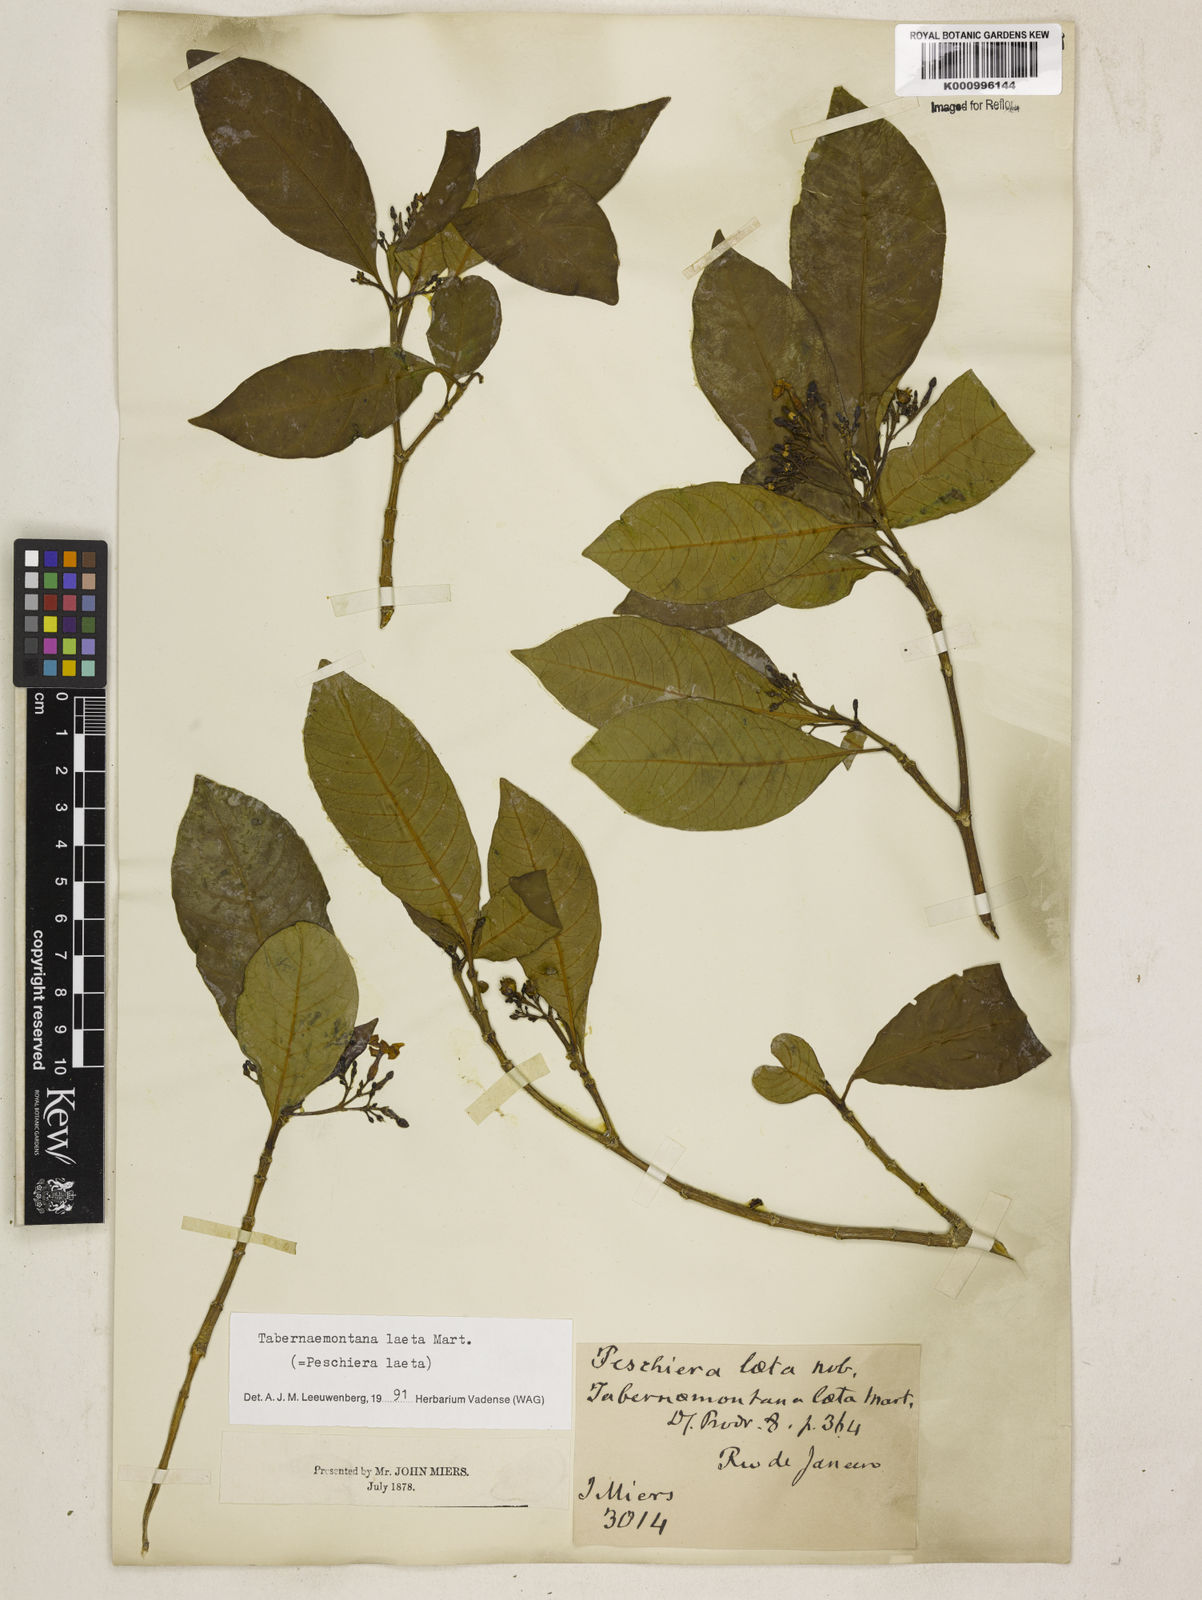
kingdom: Plantae
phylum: Tracheophyta
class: Magnoliopsida
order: Gentianales
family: Apocynaceae
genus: Tabernaemontana
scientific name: Tabernaemontana laeta
